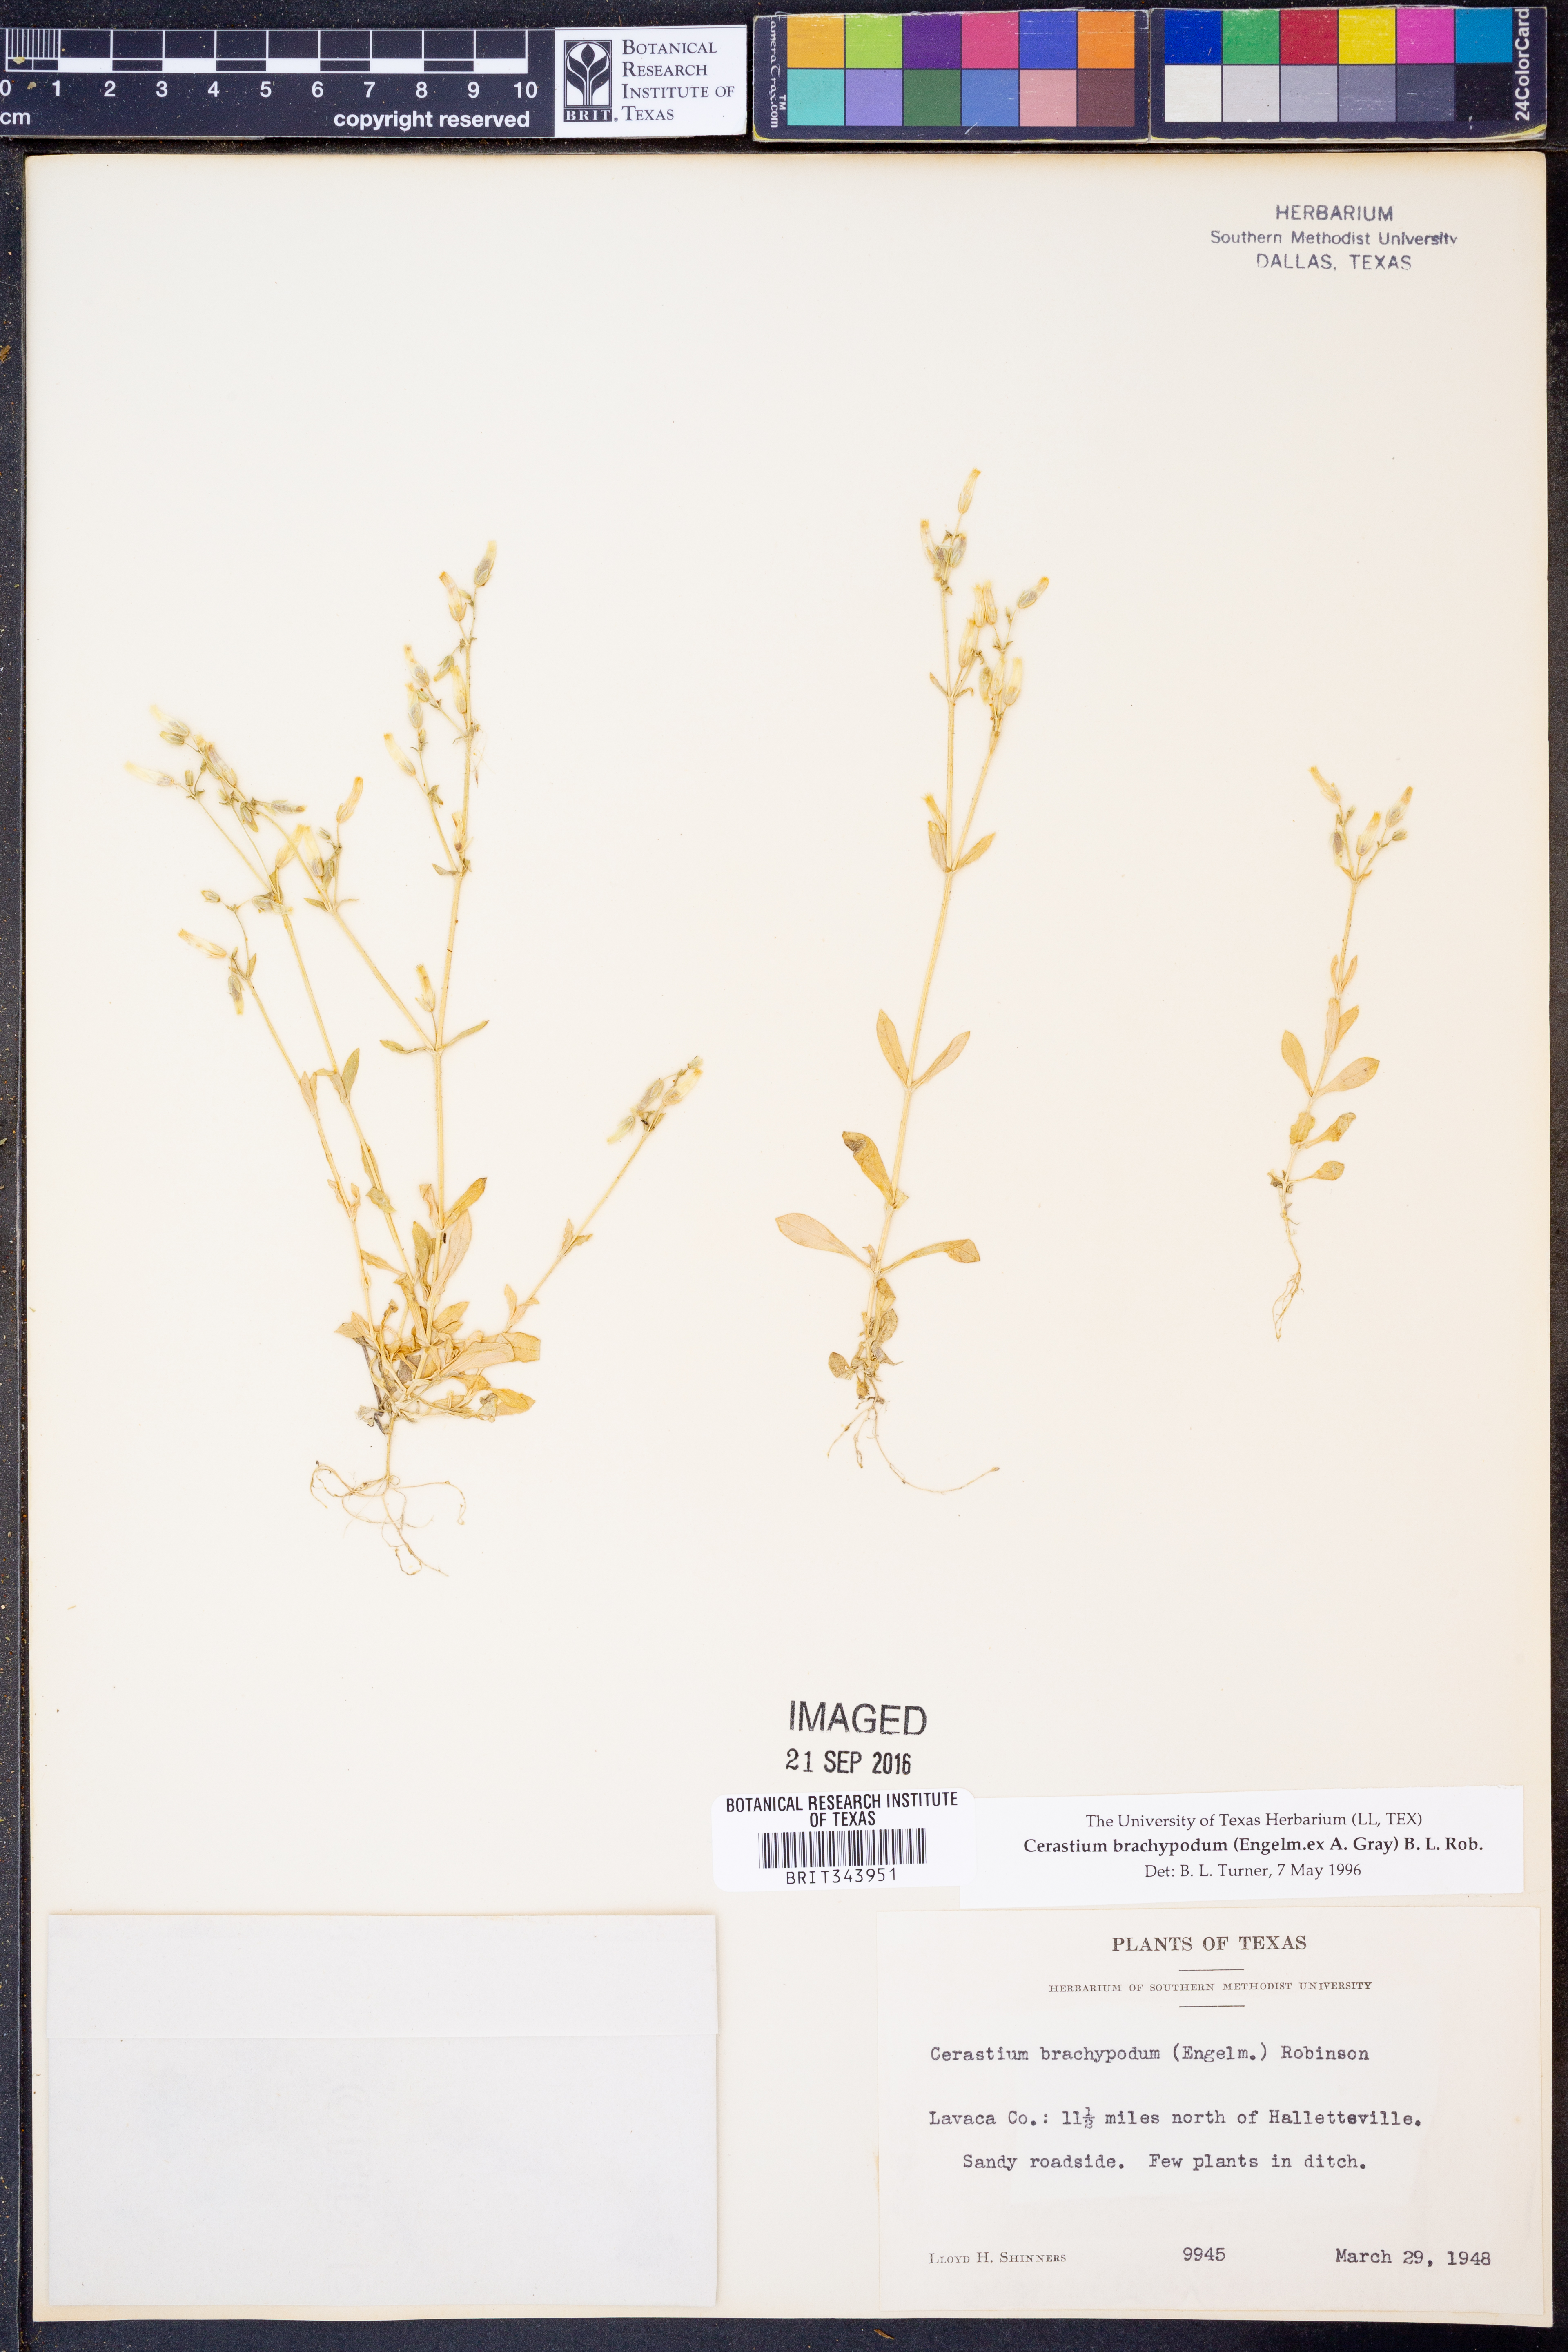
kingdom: Plantae
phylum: Tracheophyta
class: Magnoliopsida
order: Caryophyllales
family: Caryophyllaceae
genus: Cerastium
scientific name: Cerastium brachypodum
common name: Short-pedicelled nodding chickweed
